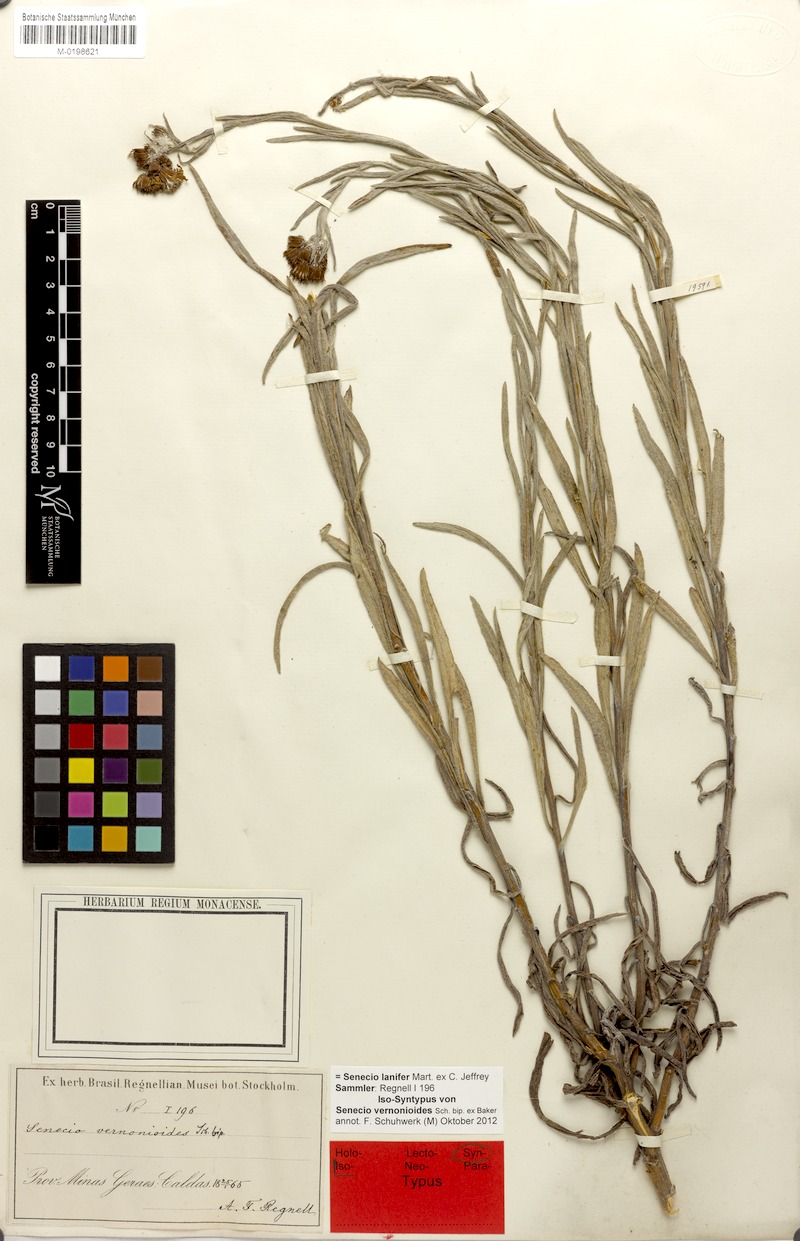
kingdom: Plantae
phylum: Tracheophyta
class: Magnoliopsida
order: Asterales
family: Asteraceae
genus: Senecio
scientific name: Senecio lanifer
